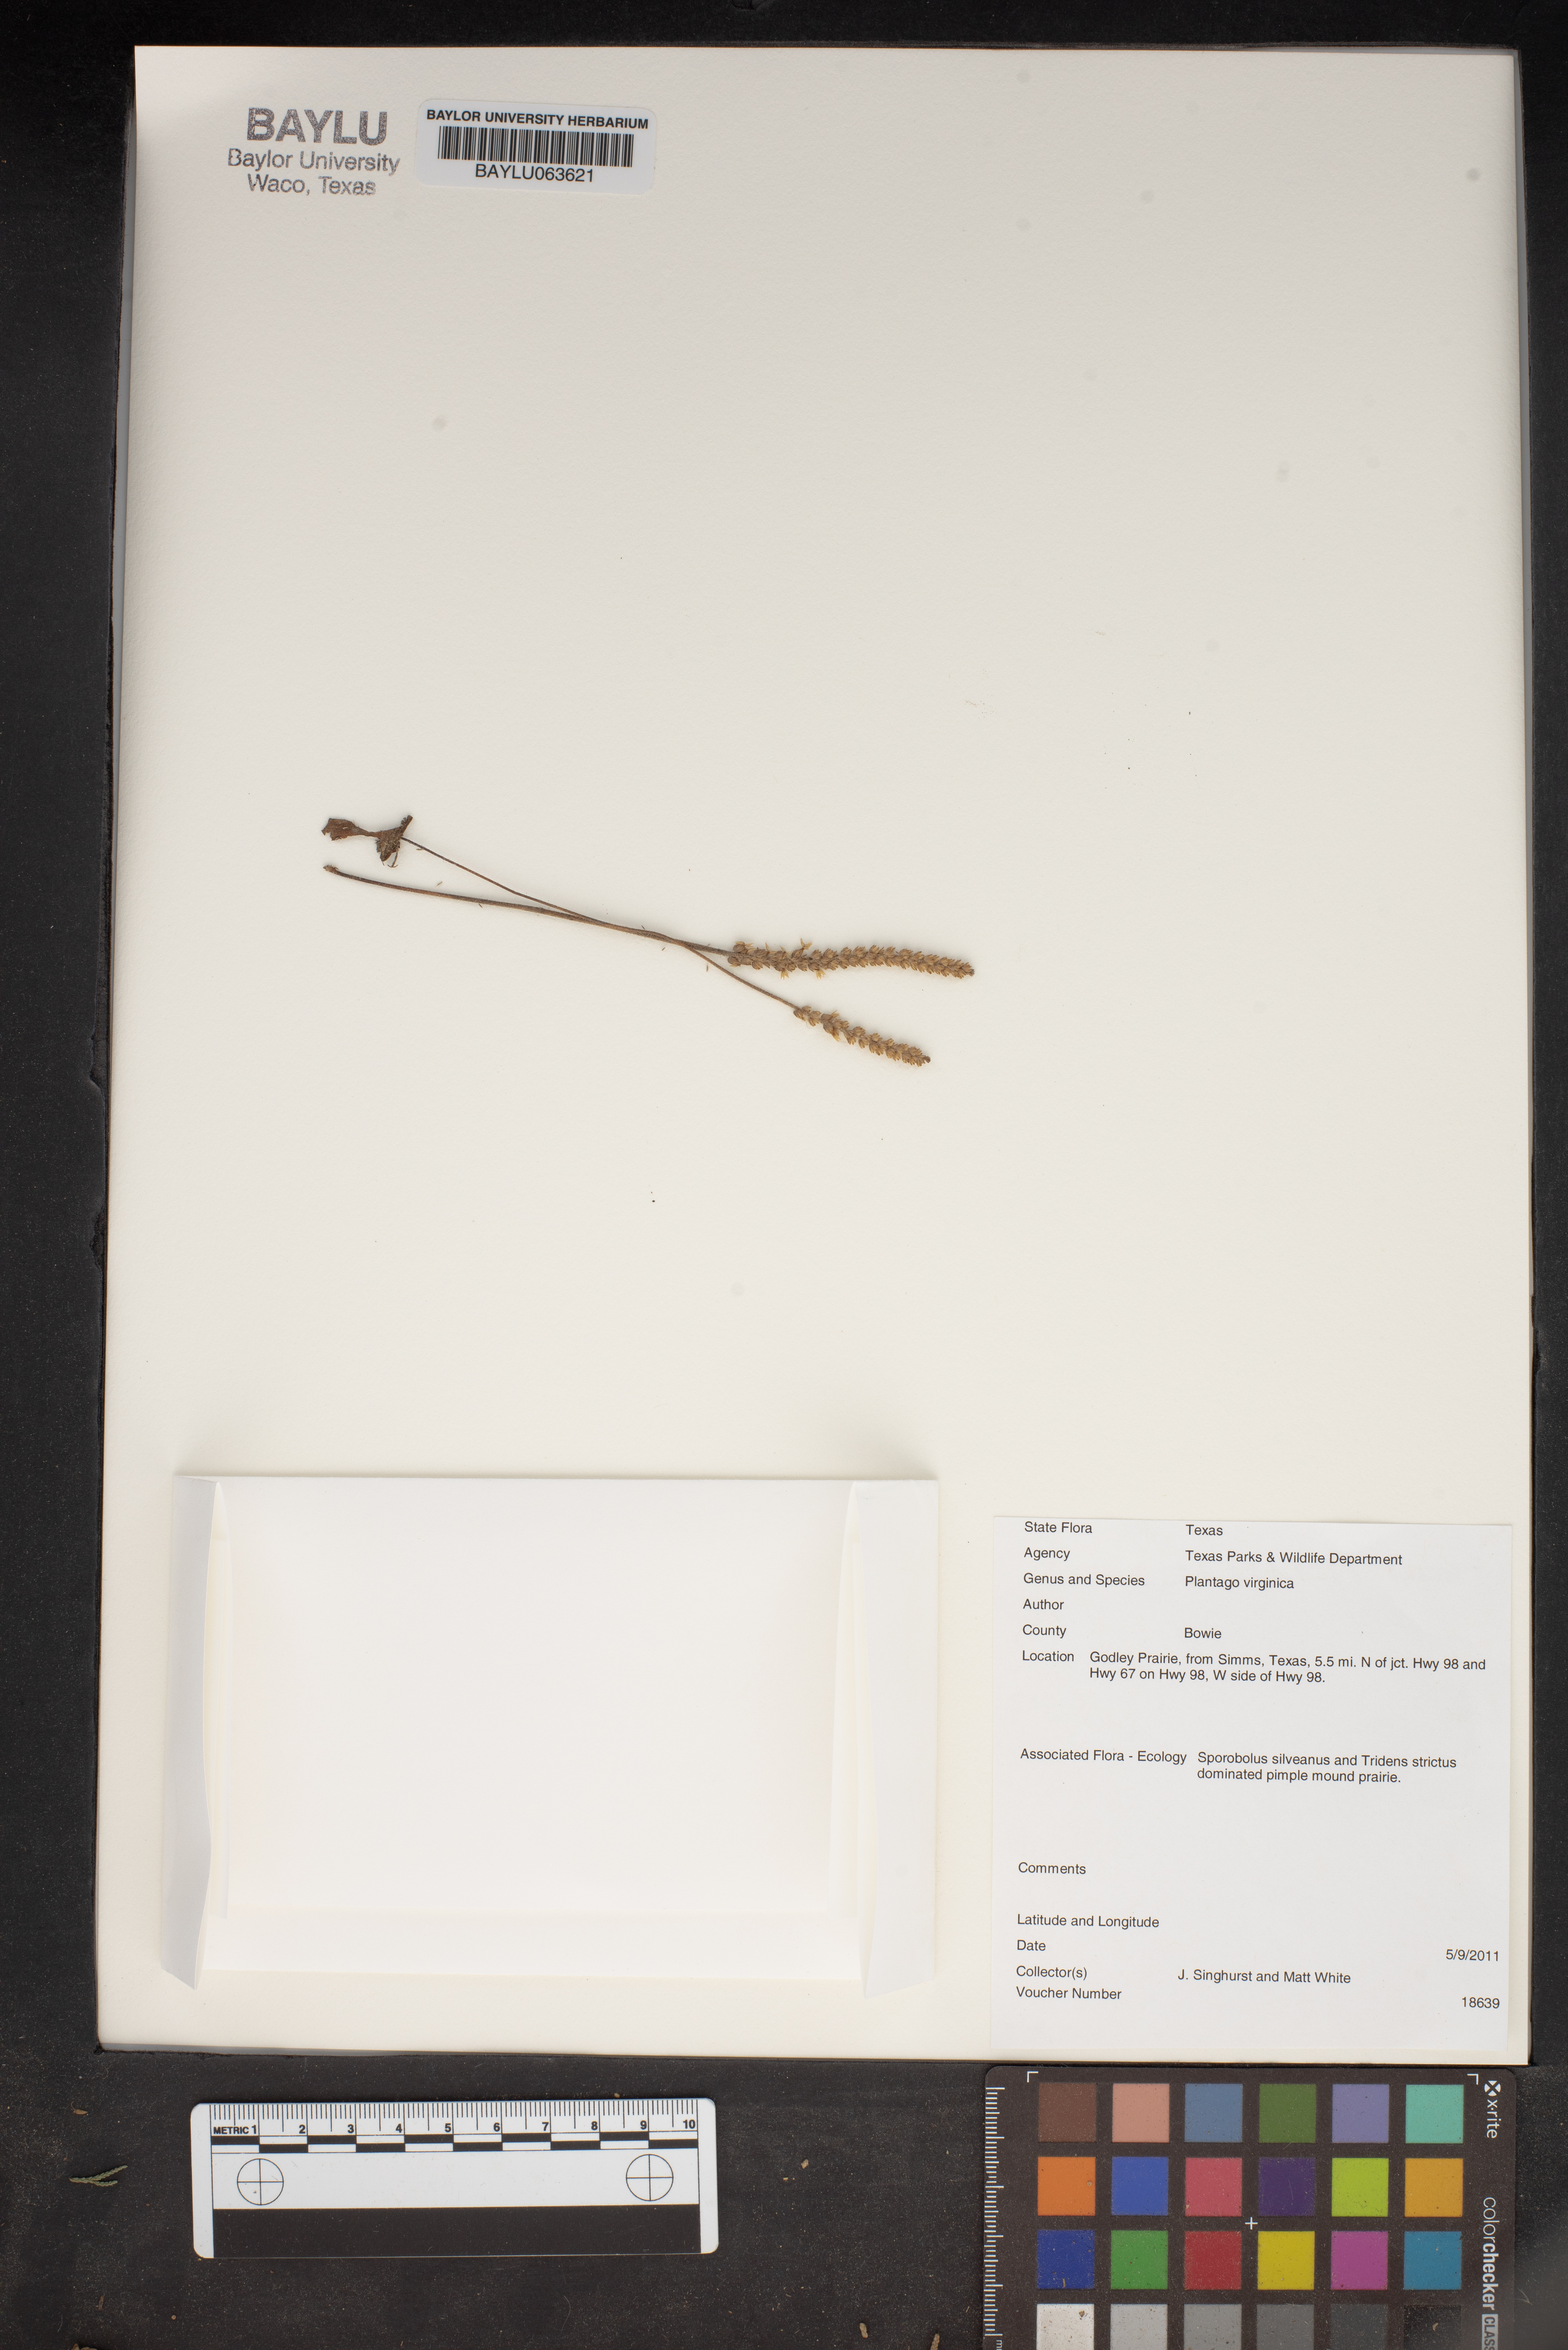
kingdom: Plantae
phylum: Tracheophyta
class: Magnoliopsida
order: Lamiales
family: Plantaginaceae
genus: Plantago
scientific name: Plantago virginica
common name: Hoary plantain
